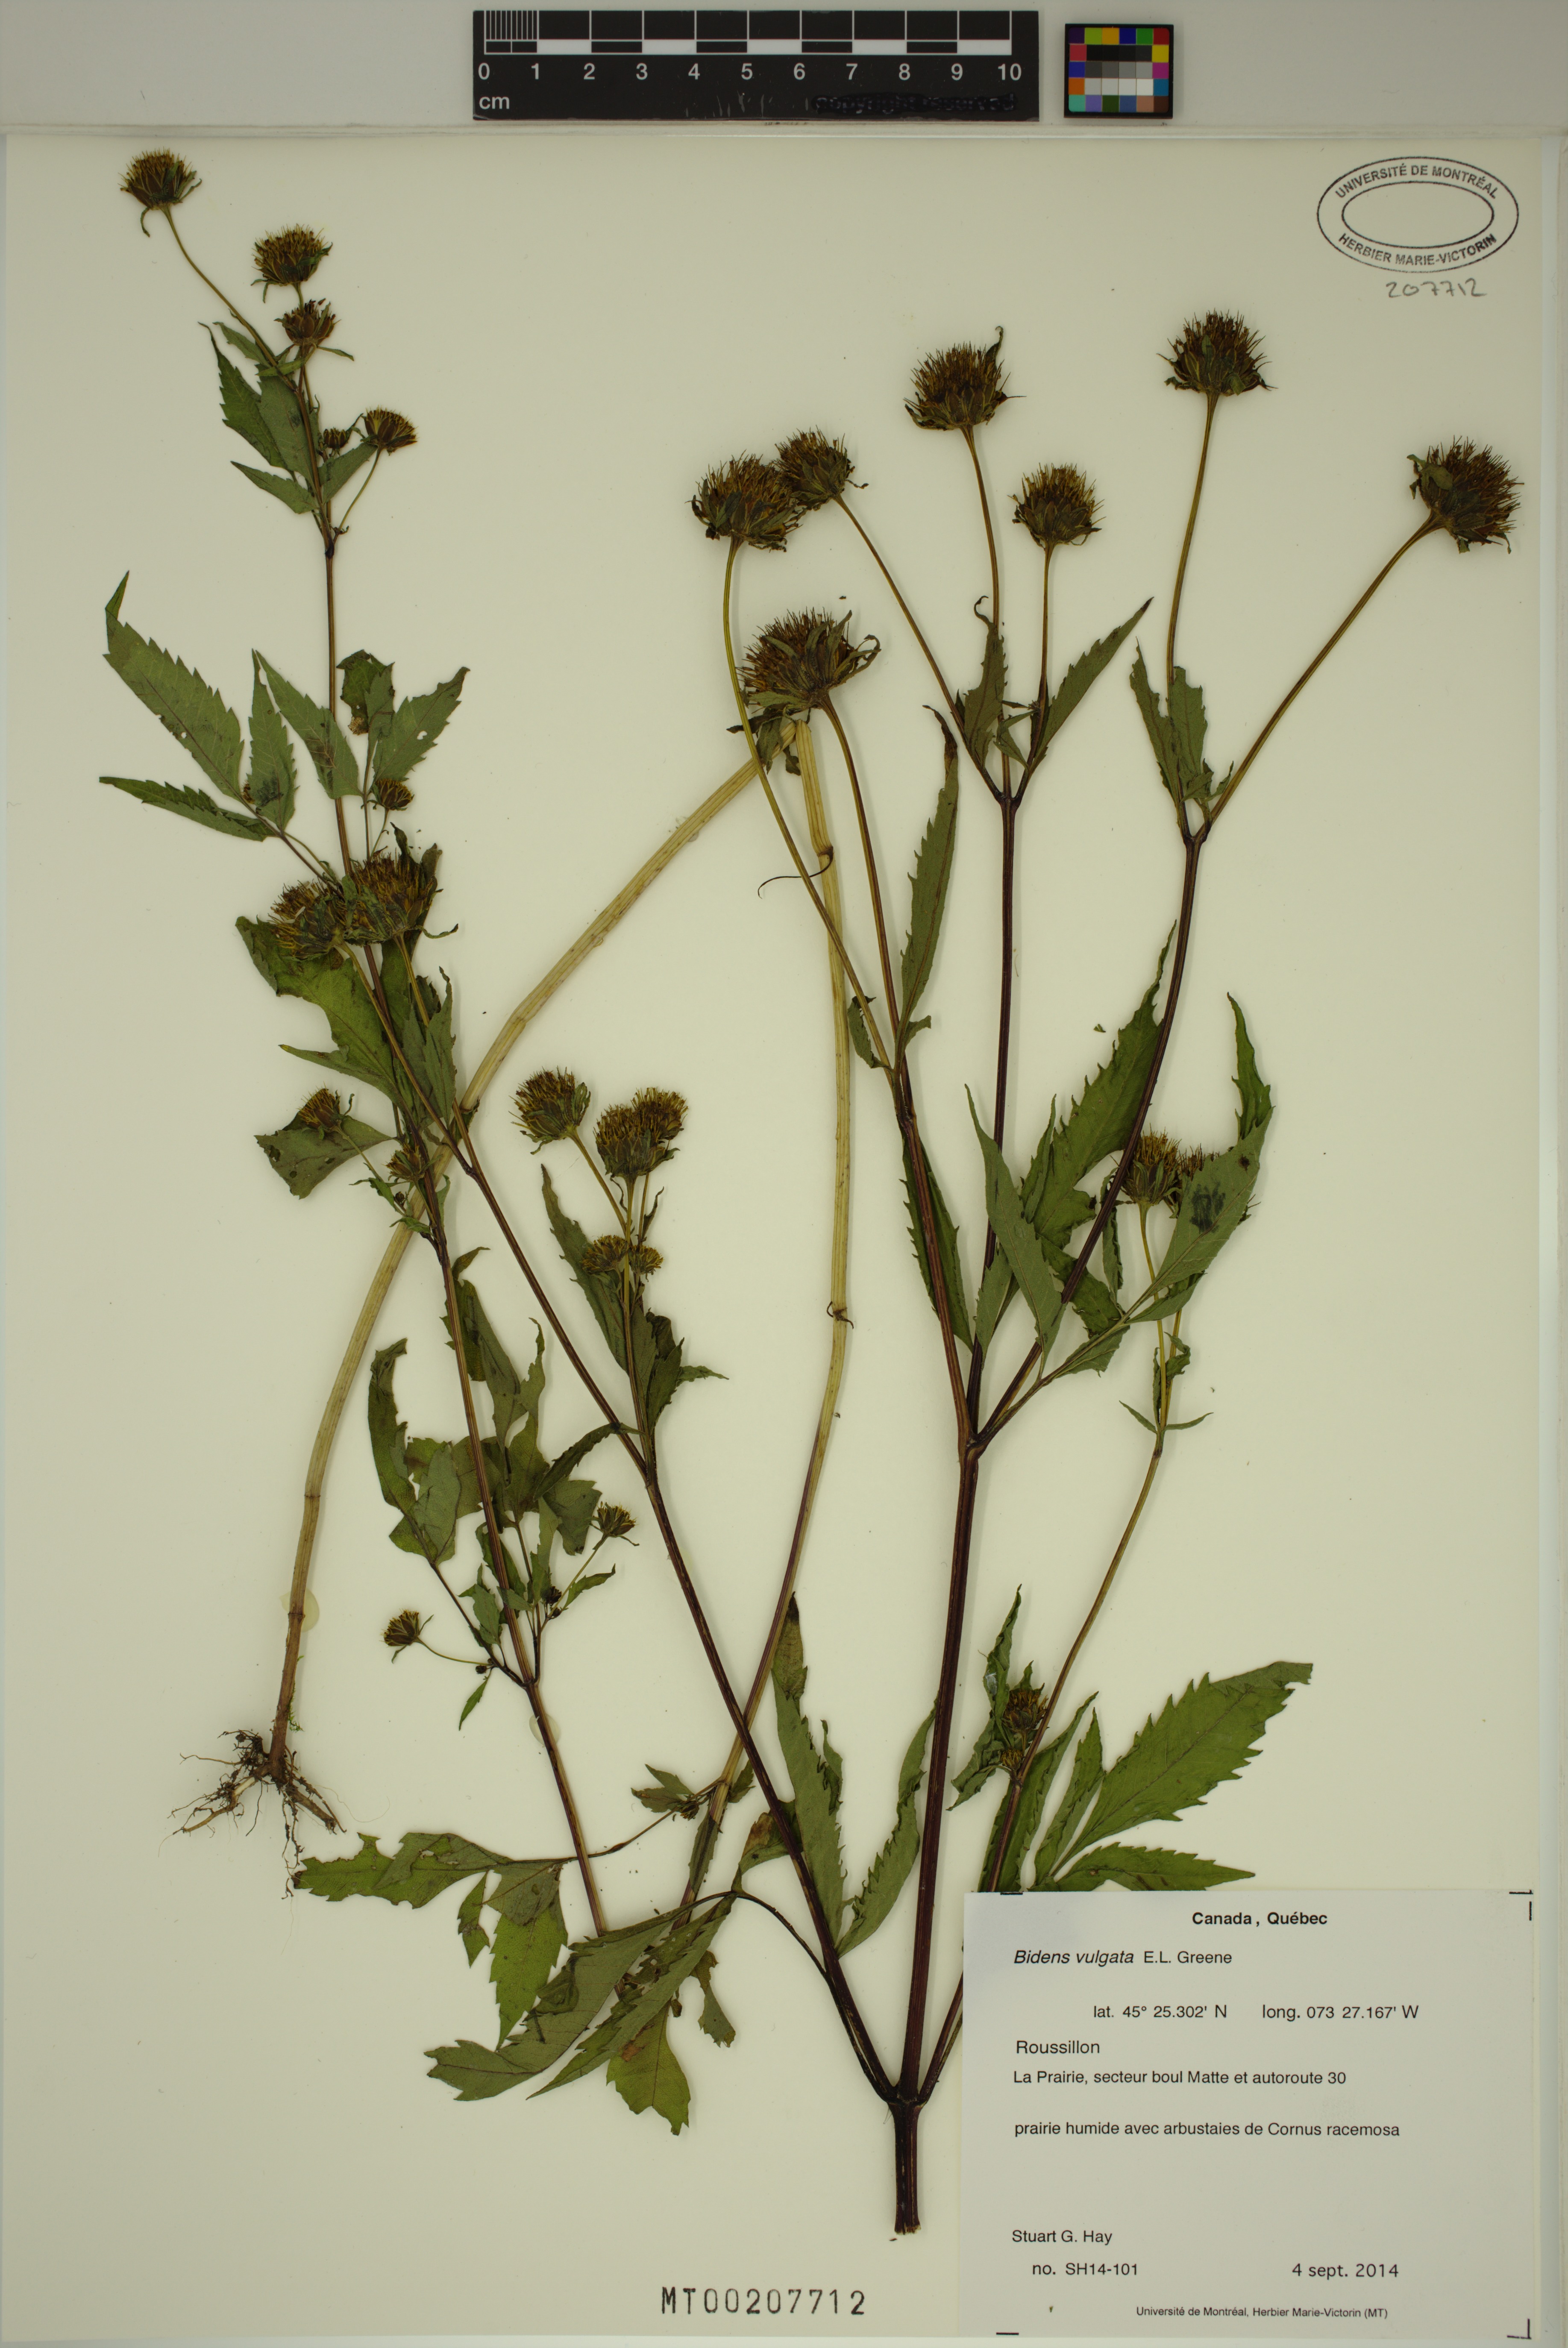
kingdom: Plantae
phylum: Tracheophyta
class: Magnoliopsida
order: Asterales
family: Asteraceae
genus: Bidens
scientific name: Bidens vulgata
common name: Tall beggarticks
